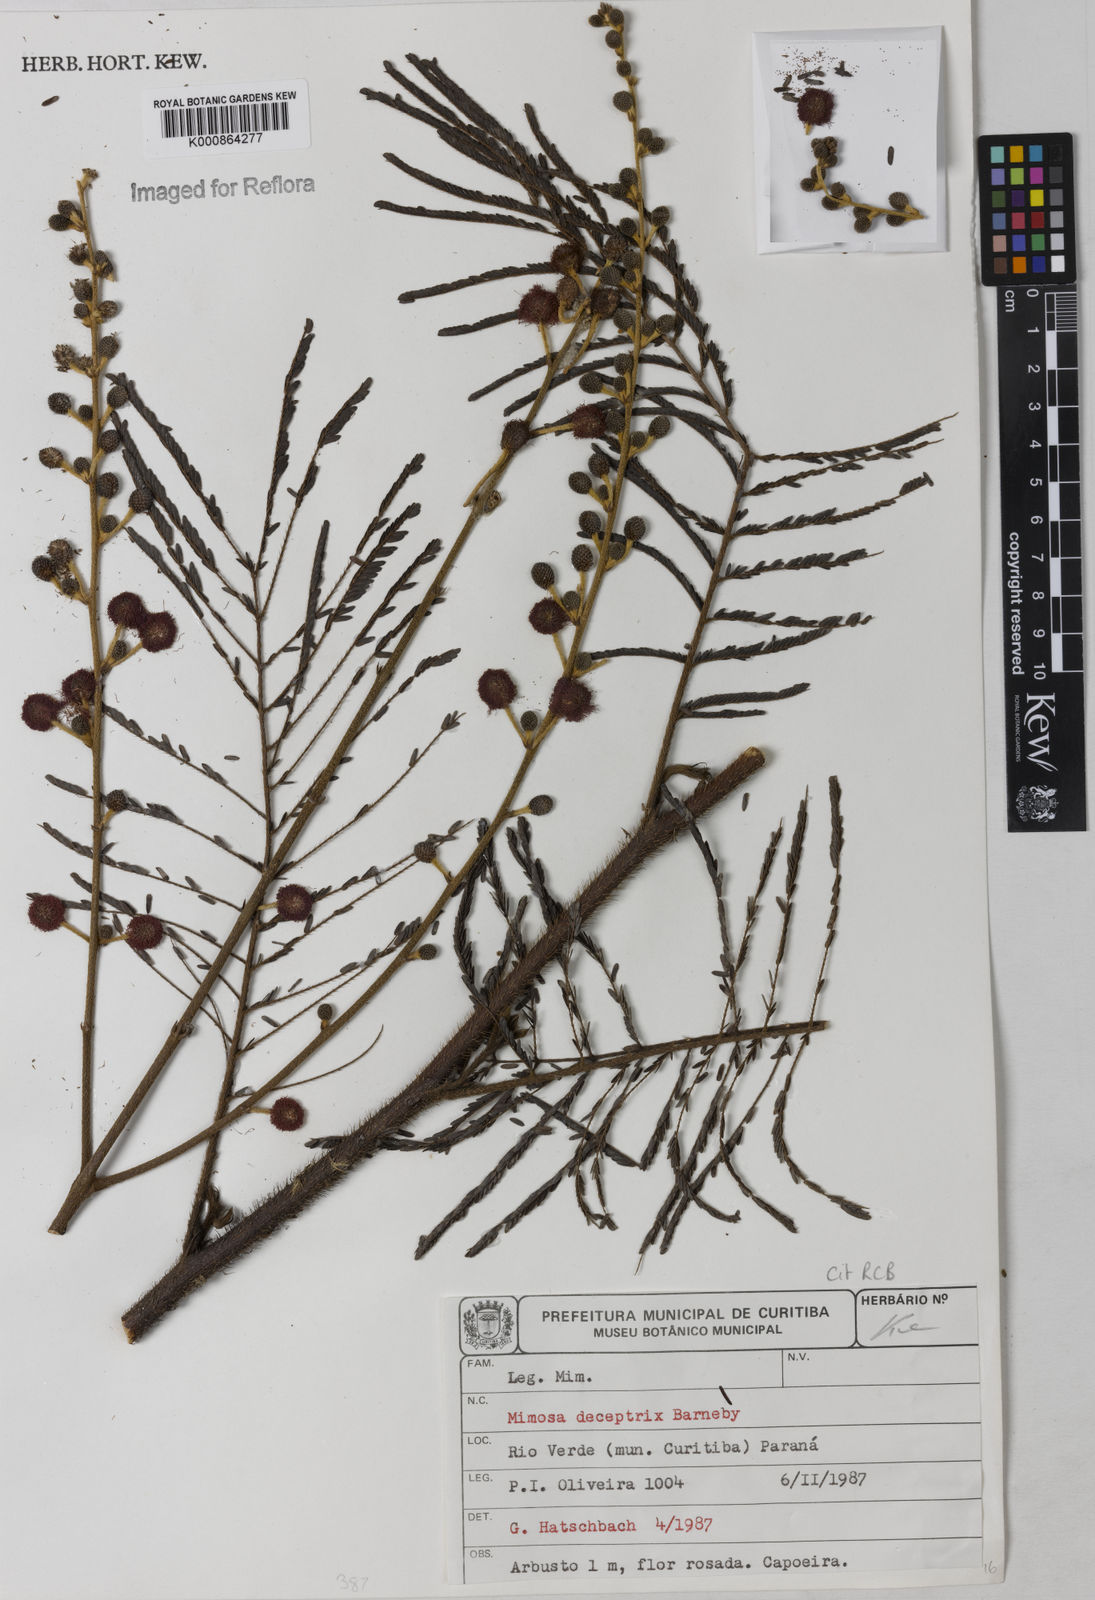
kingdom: Plantae
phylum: Tracheophyta
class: Magnoliopsida
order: Fabales
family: Fabaceae
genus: Mimosa
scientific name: Mimosa deceptrix
